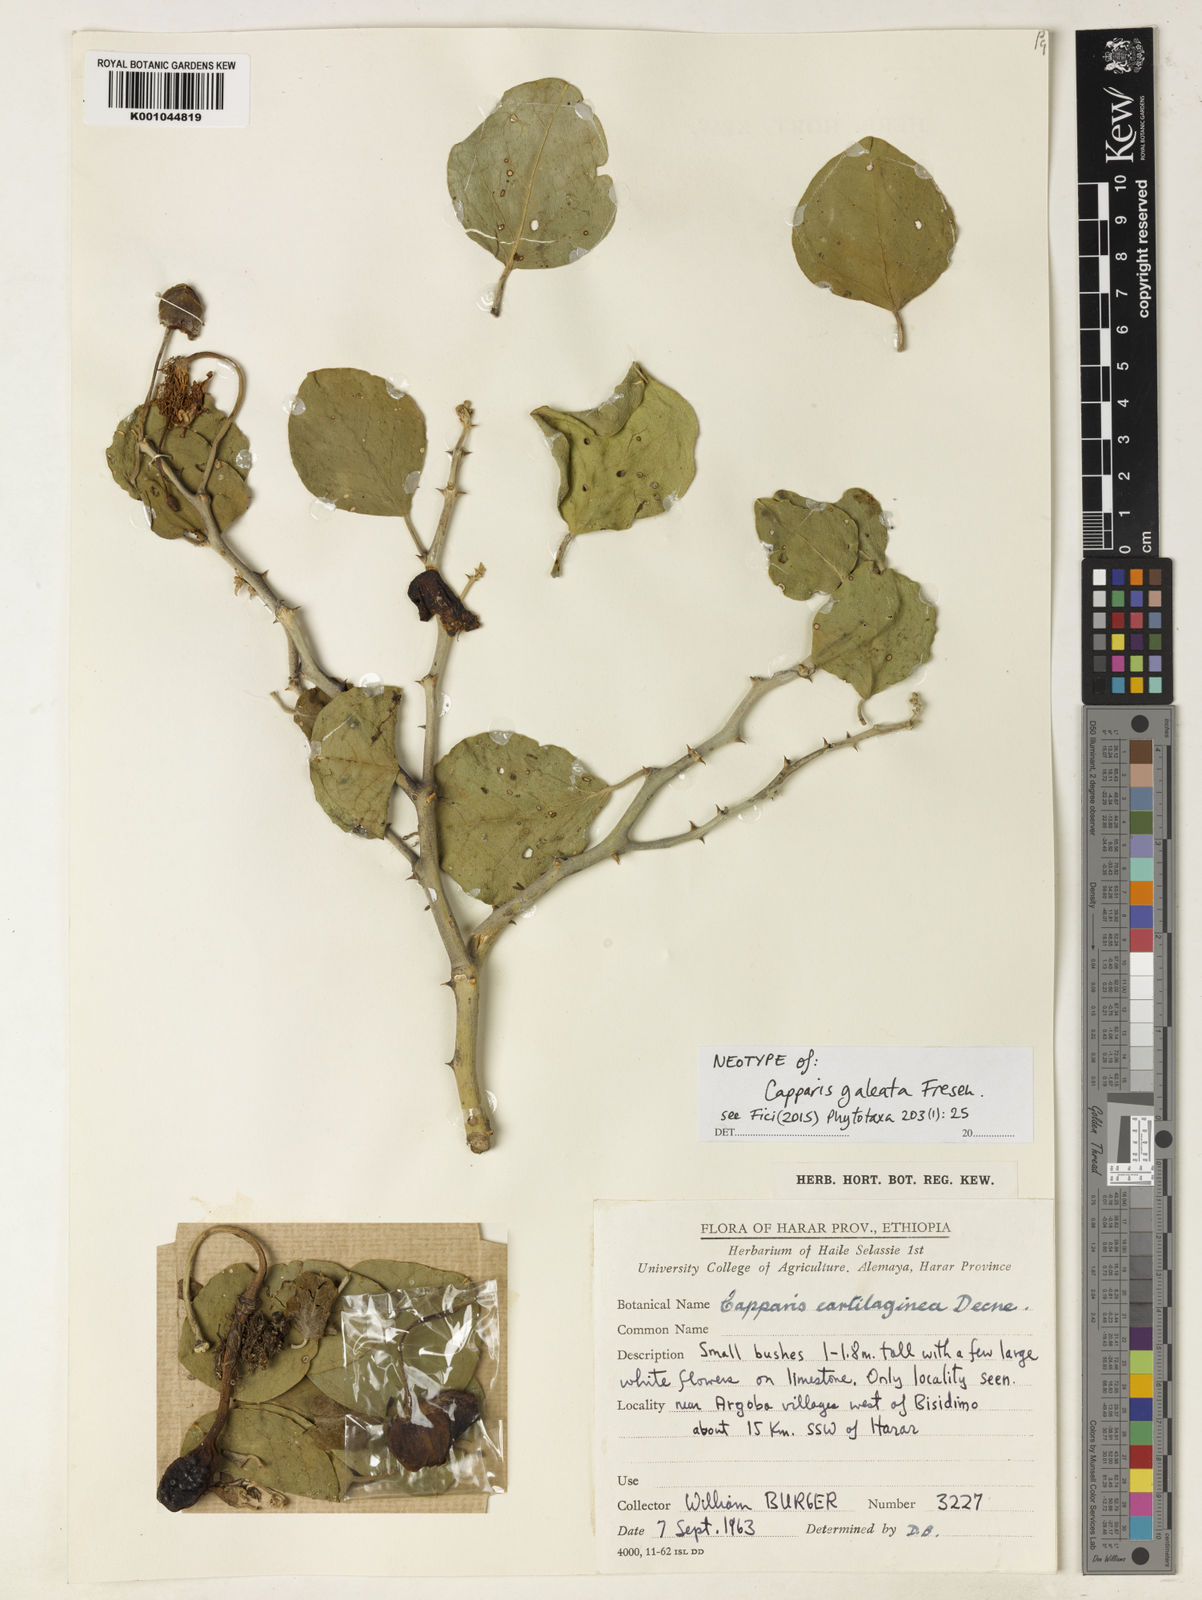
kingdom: Plantae
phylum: Tracheophyta
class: Magnoliopsida
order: Brassicales
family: Capparaceae
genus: Capparis
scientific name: Capparis cartilaginea
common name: Caper
